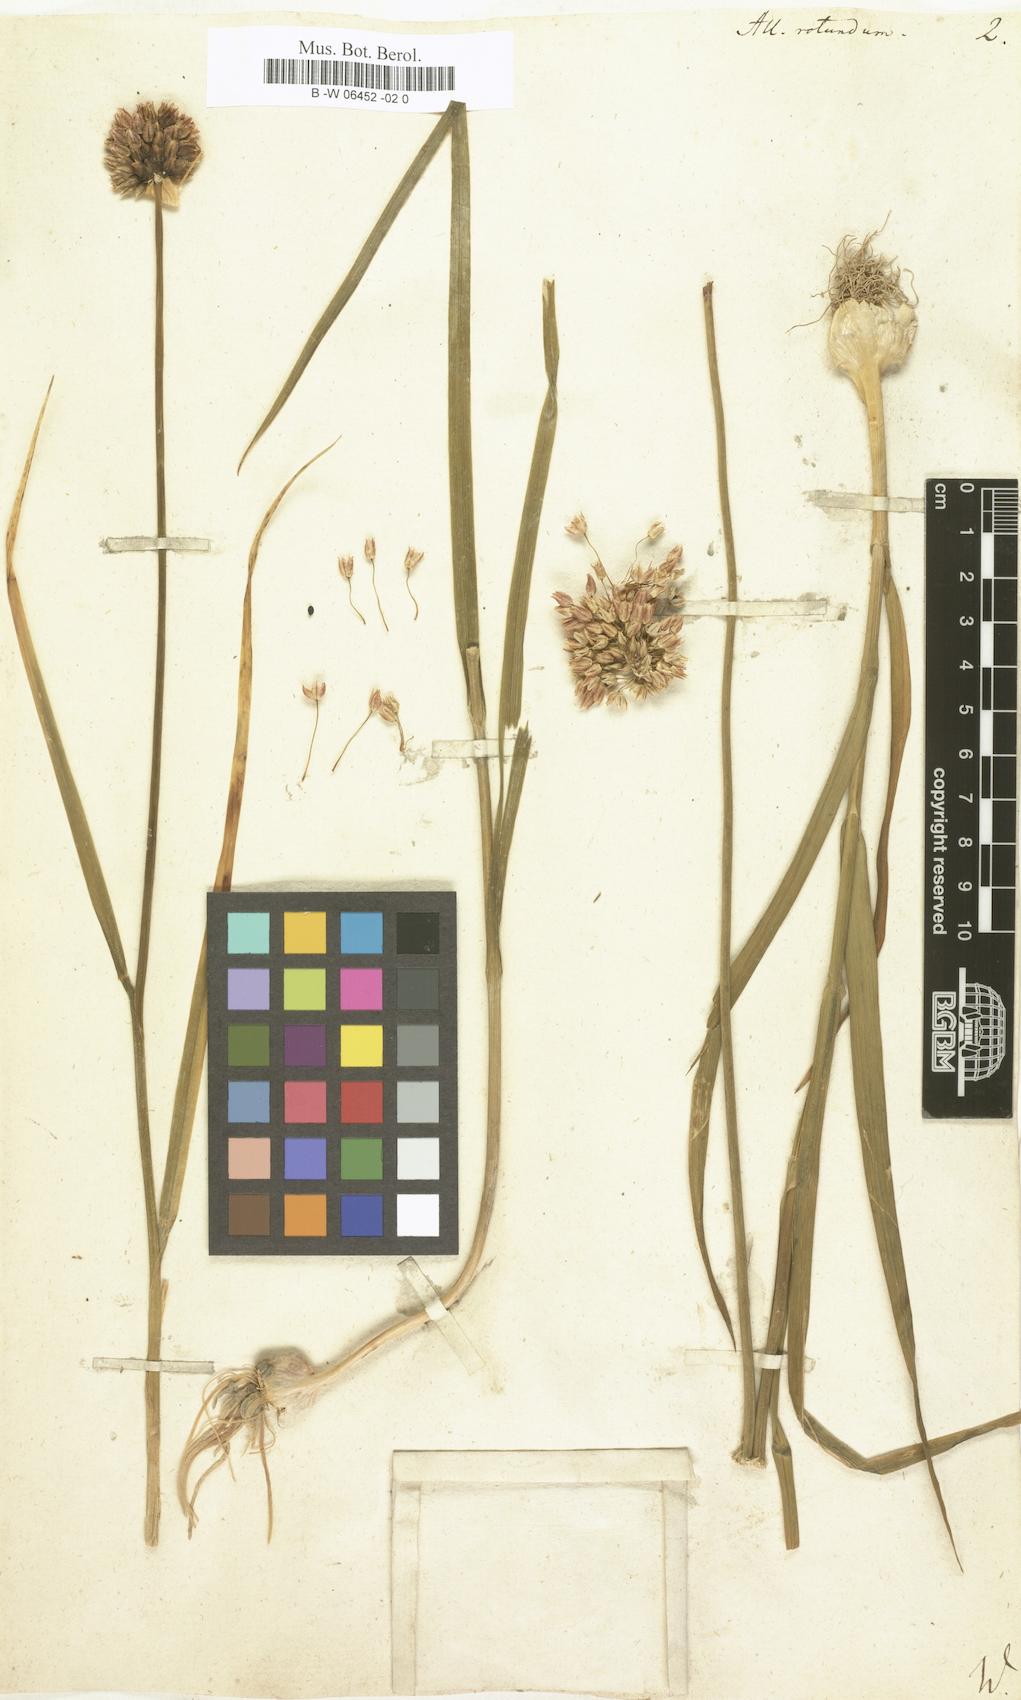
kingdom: Plantae
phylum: Tracheophyta
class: Liliopsida
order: Asparagales
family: Amaryllidaceae
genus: Allium
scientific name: Allium rotundum
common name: Sand leek
